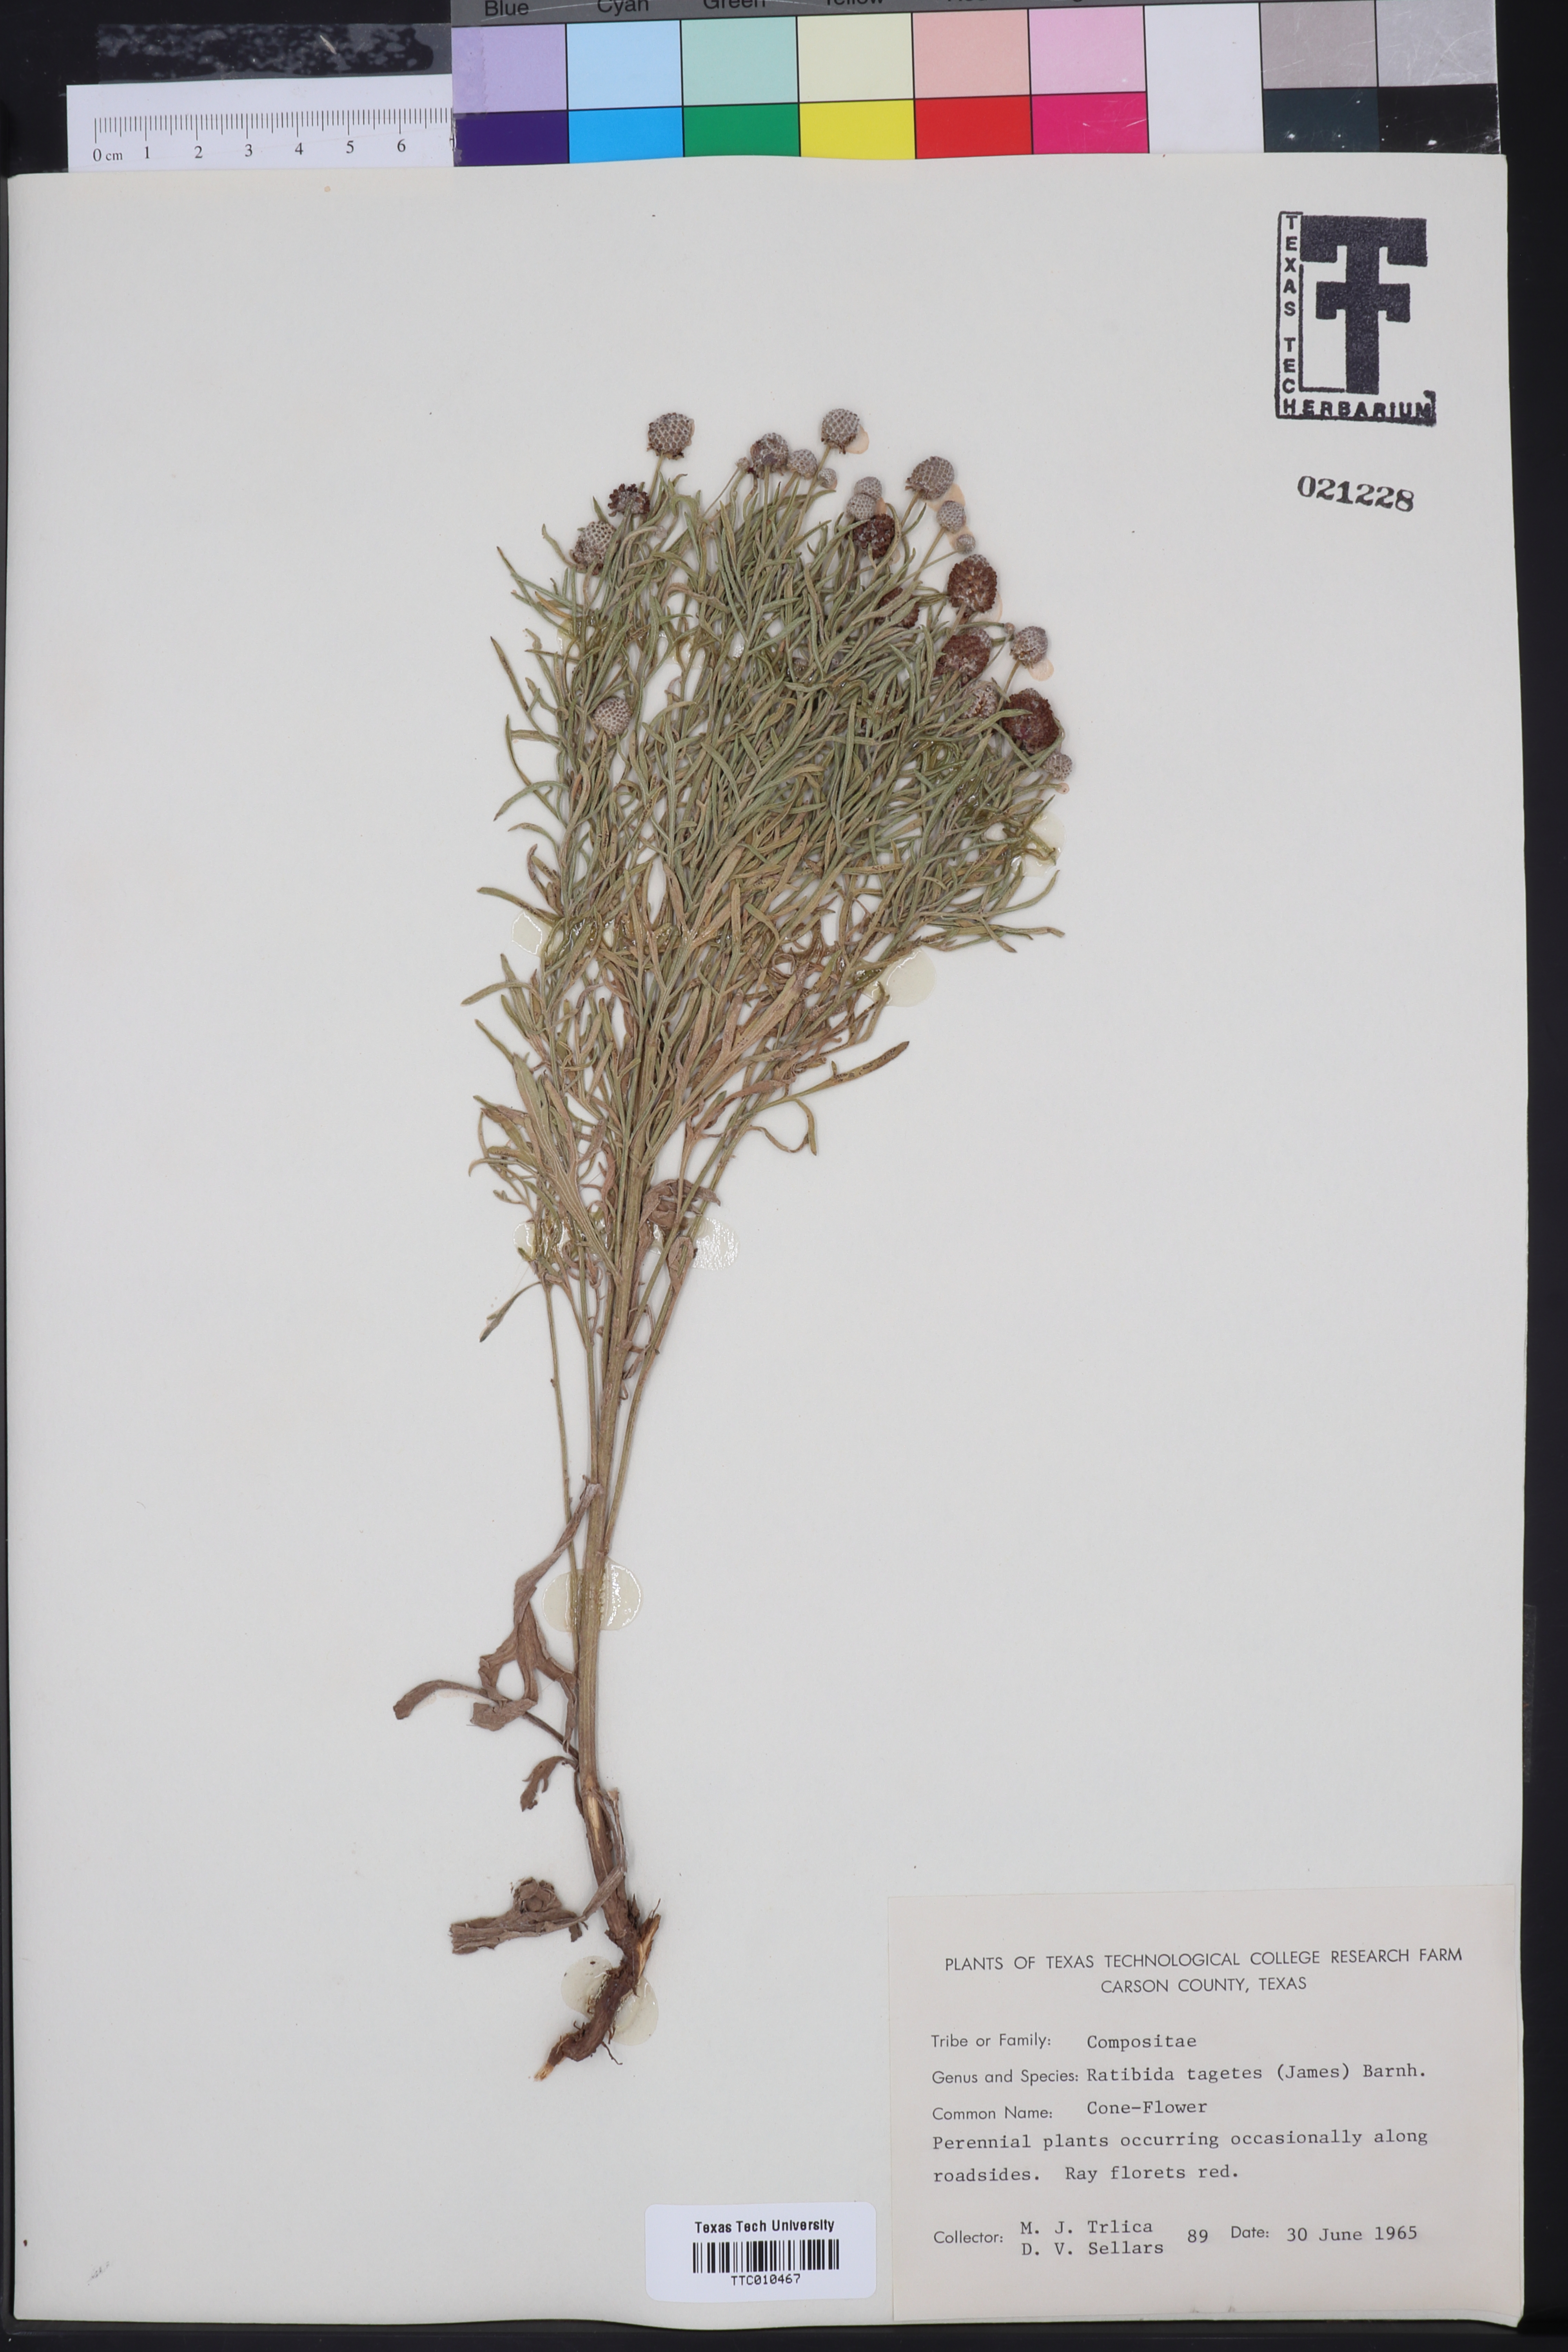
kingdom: Plantae
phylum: Tracheophyta
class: Magnoliopsida
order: Asterales
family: Asteraceae
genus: Ratibida
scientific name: Ratibida tagetes
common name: Green mexican-hat
